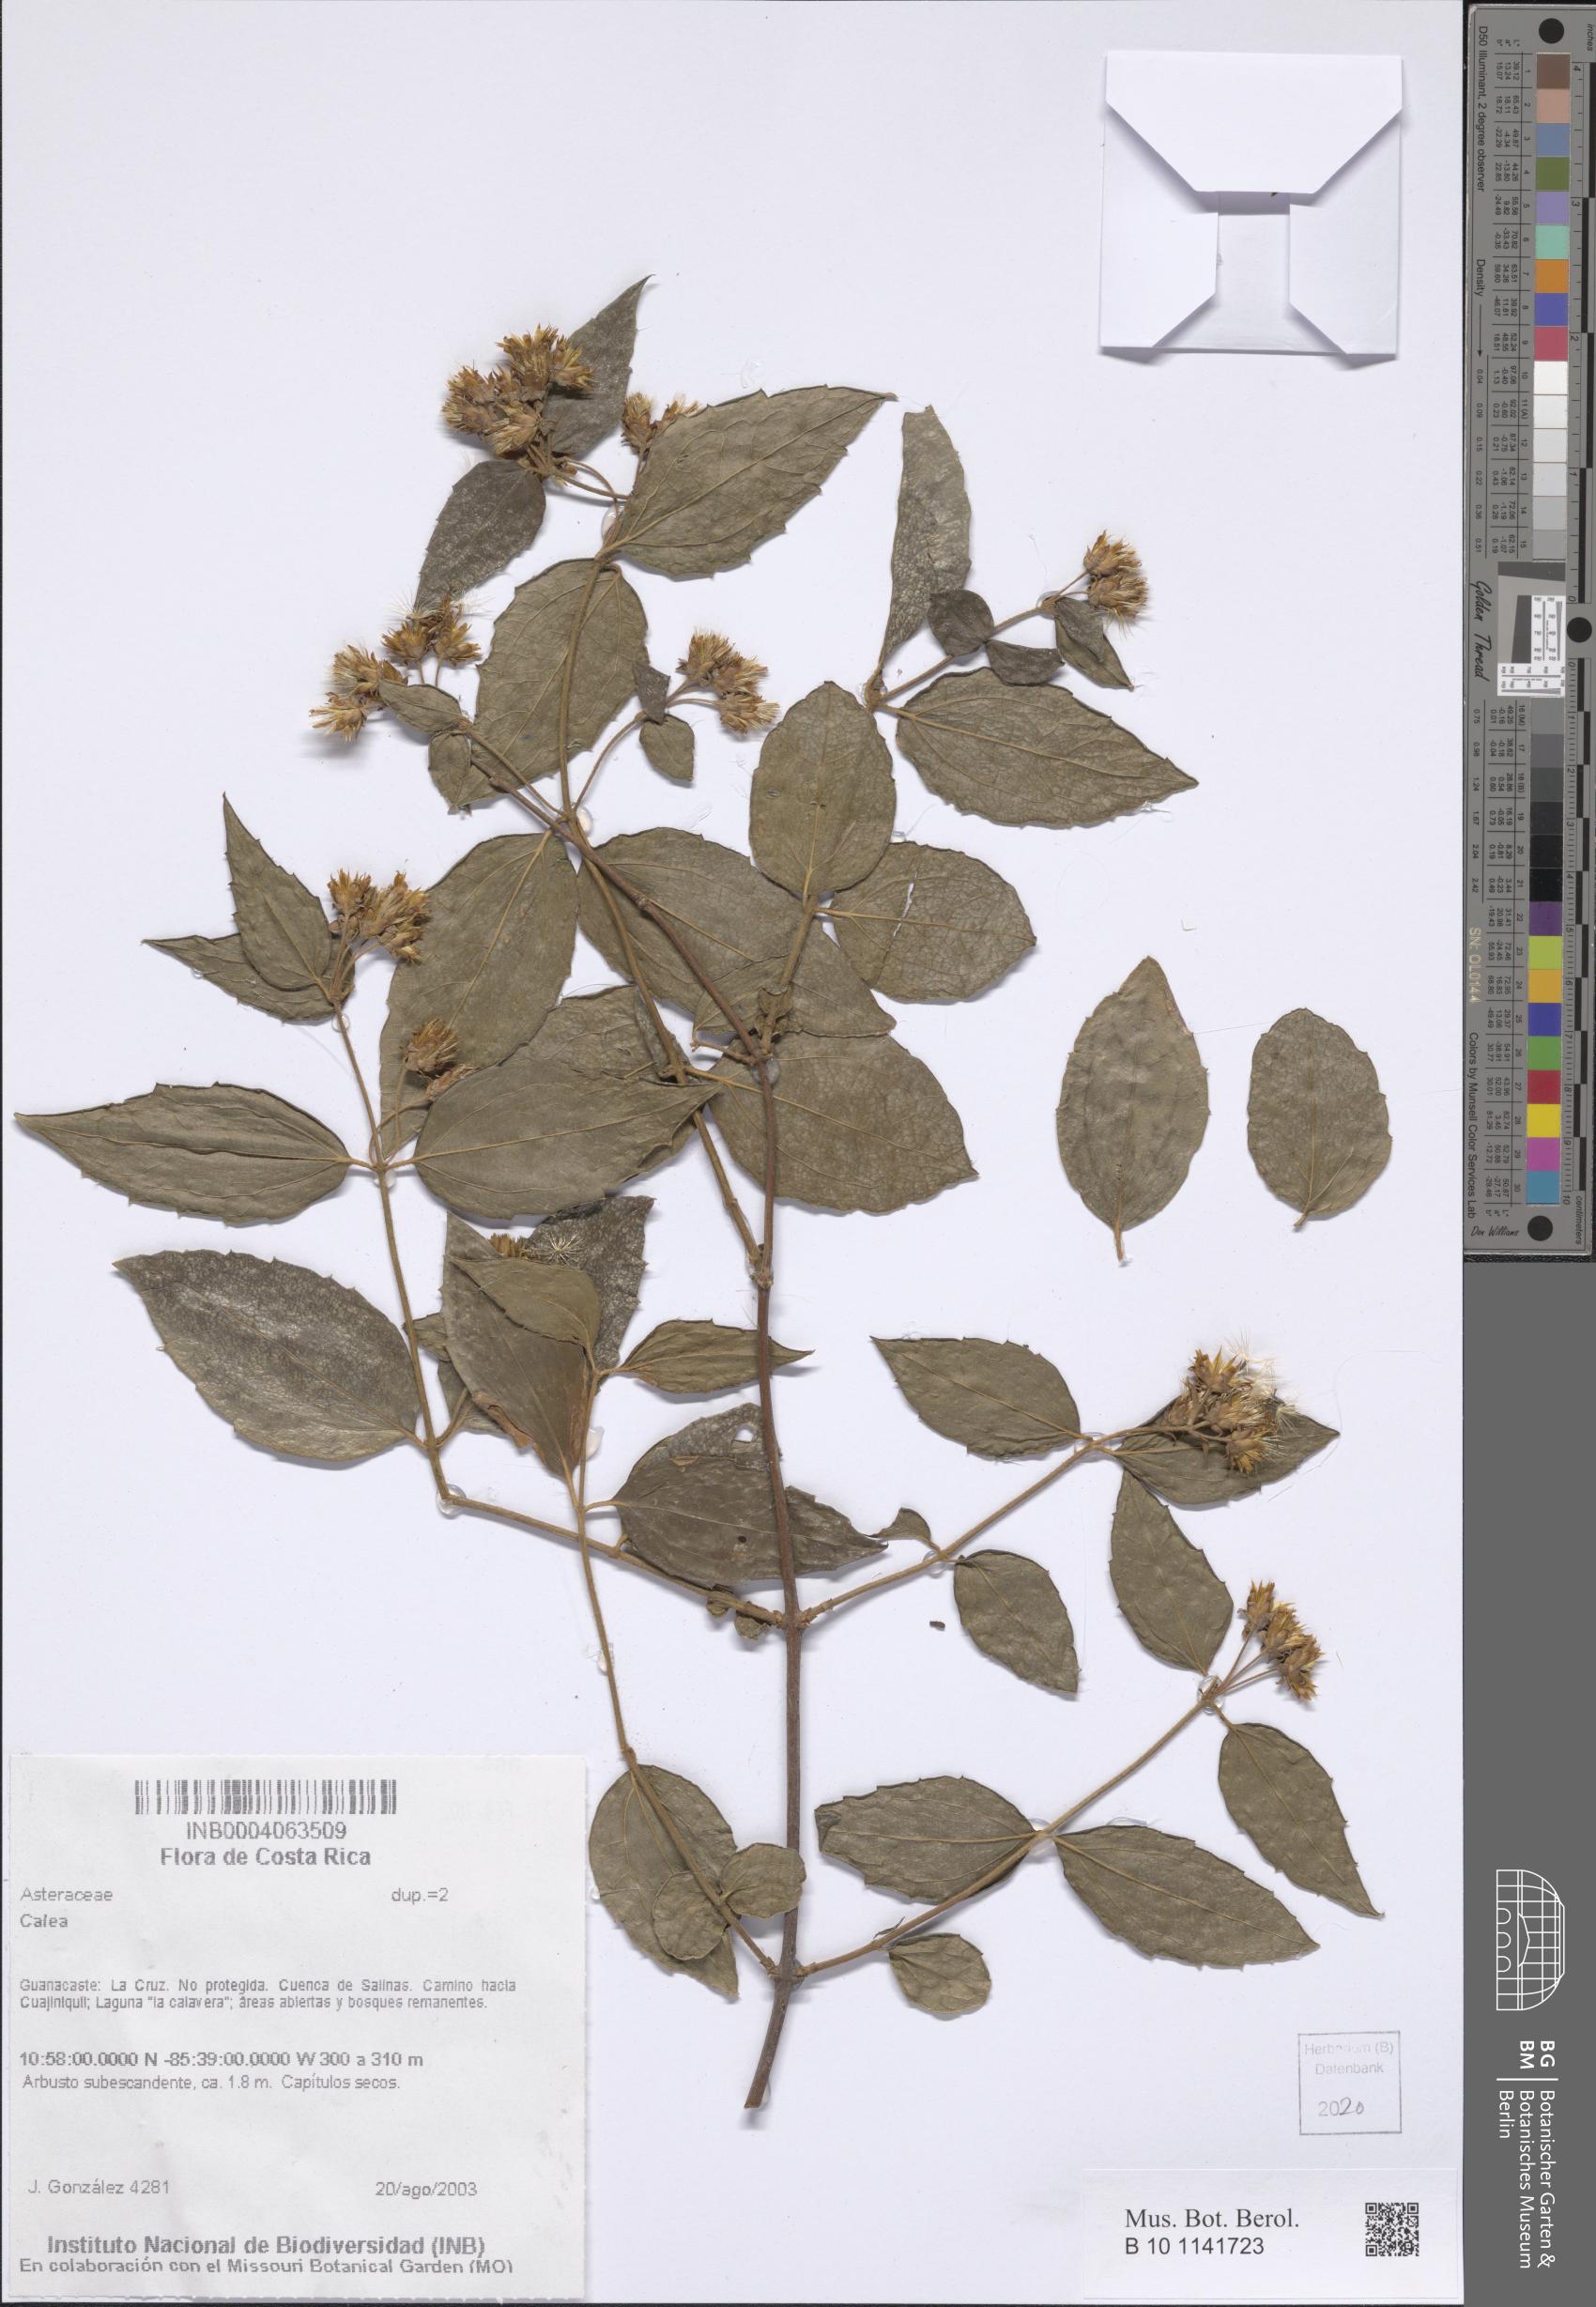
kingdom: Plantae
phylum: Tracheophyta
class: Magnoliopsida
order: Asterales
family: Asteraceae
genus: Calea
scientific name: Calea
